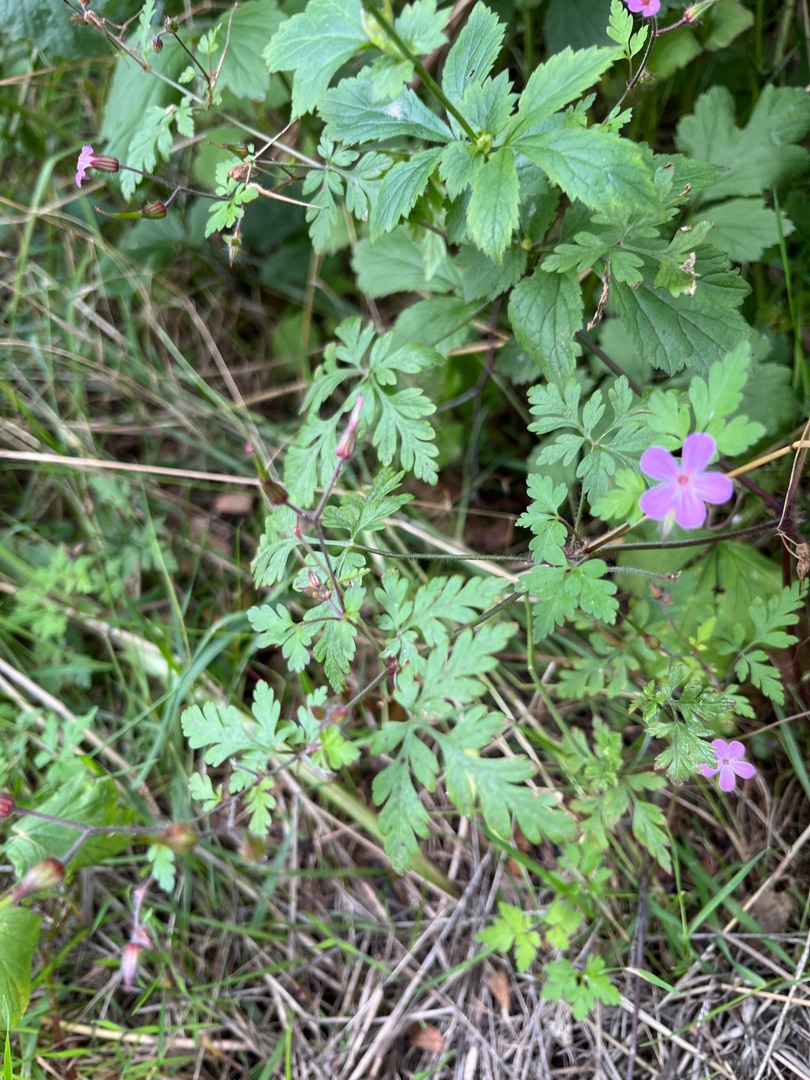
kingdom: Plantae
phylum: Tracheophyta
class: Magnoliopsida
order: Geraniales
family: Geraniaceae
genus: Geranium
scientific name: Geranium robertianum
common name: Stinkende storkenæb
